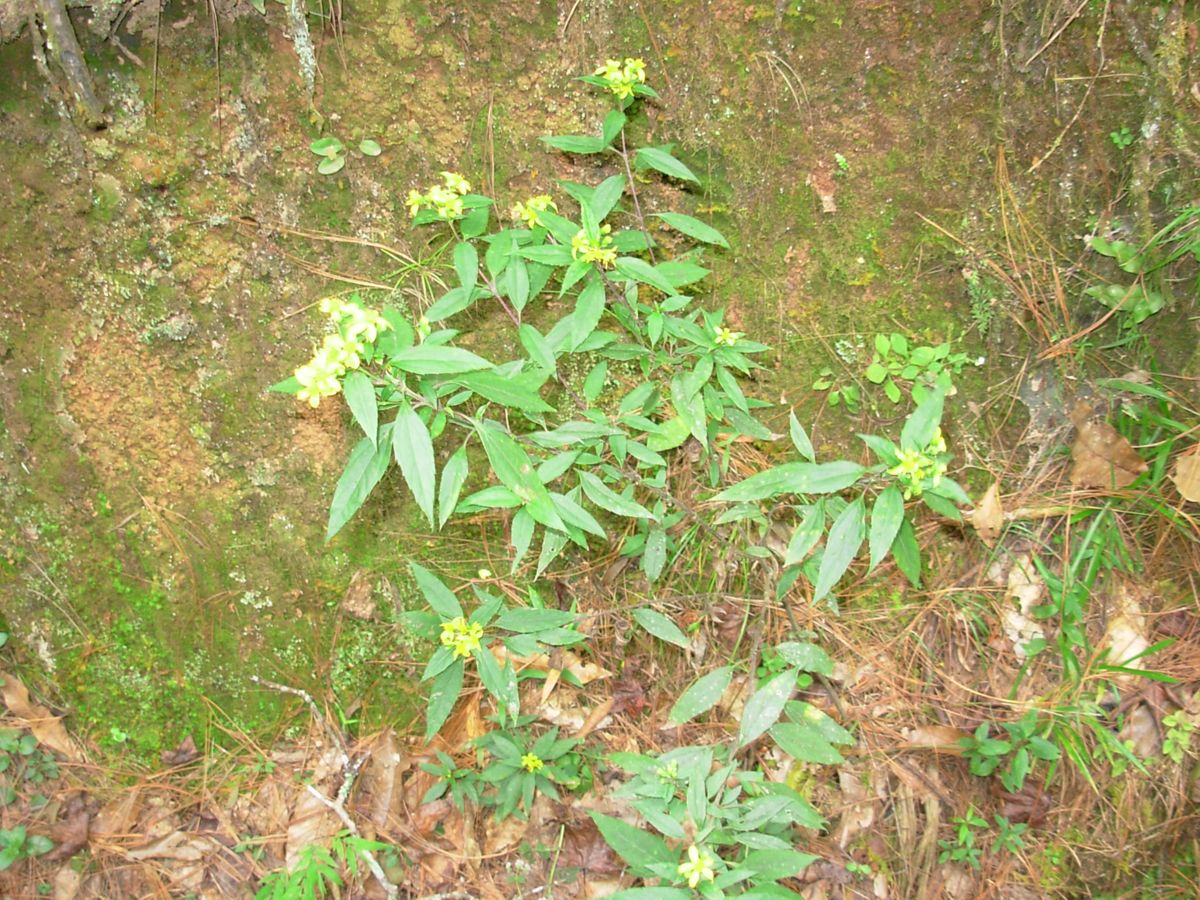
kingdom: Plantae
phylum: Tracheophyta
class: Magnoliopsida
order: Asterales
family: Asteraceae
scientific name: Asteraceae
